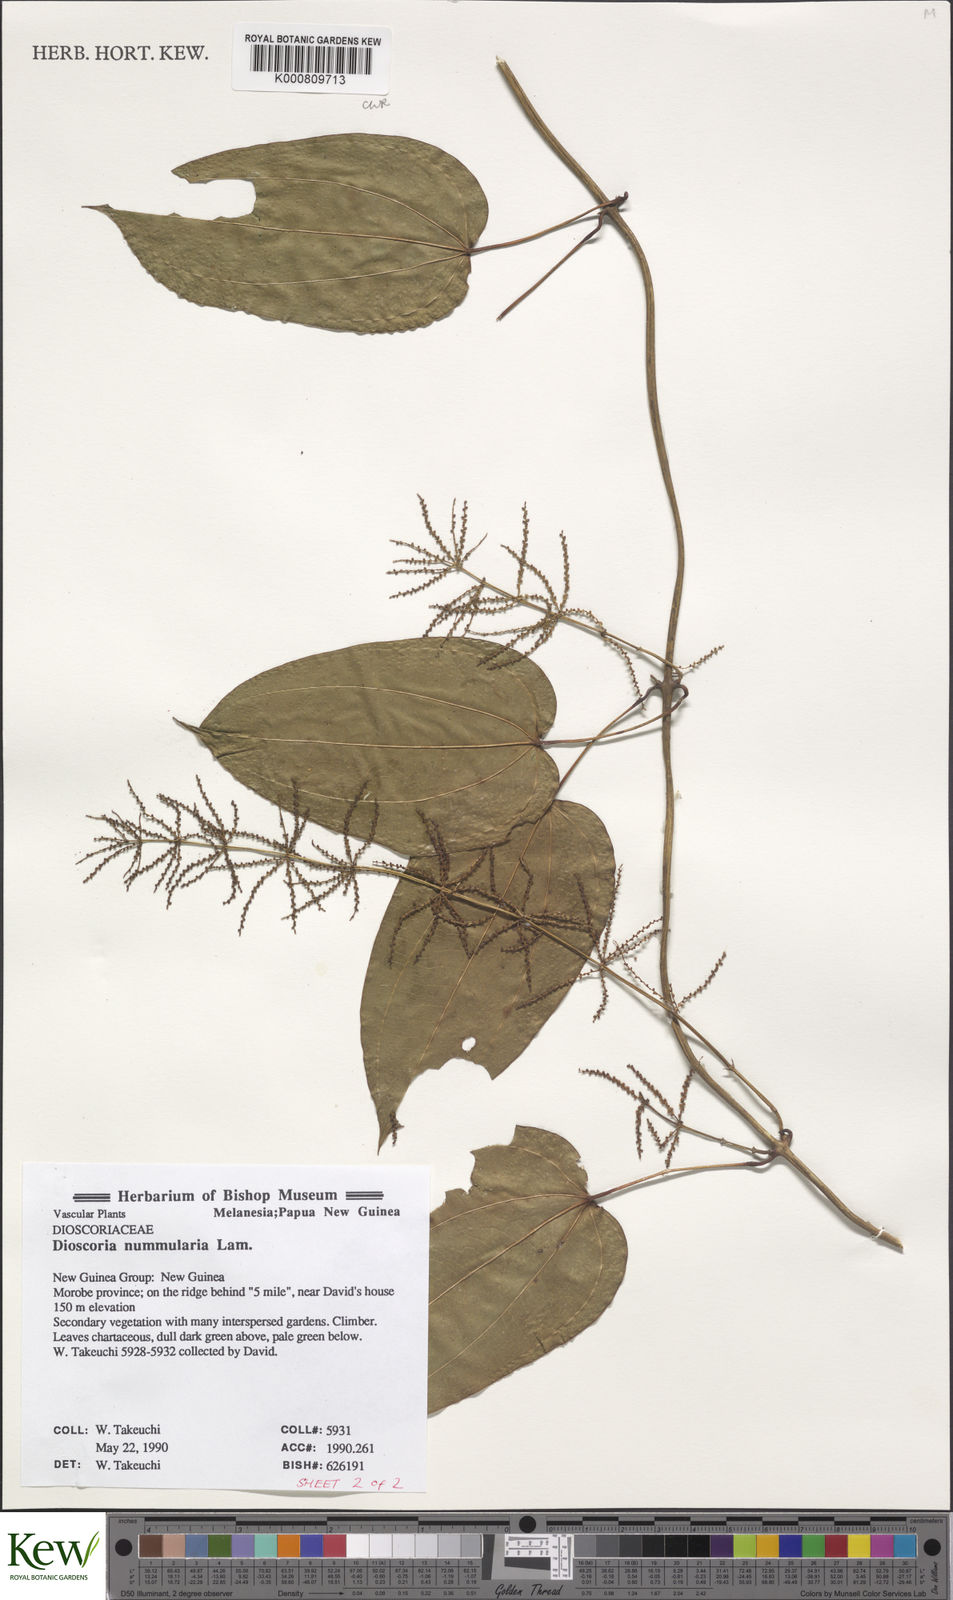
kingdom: Plantae
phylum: Tracheophyta
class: Liliopsida
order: Dioscoreales
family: Dioscoreaceae
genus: Dioscorea
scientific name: Dioscorea nummularia
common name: Pacific yam
